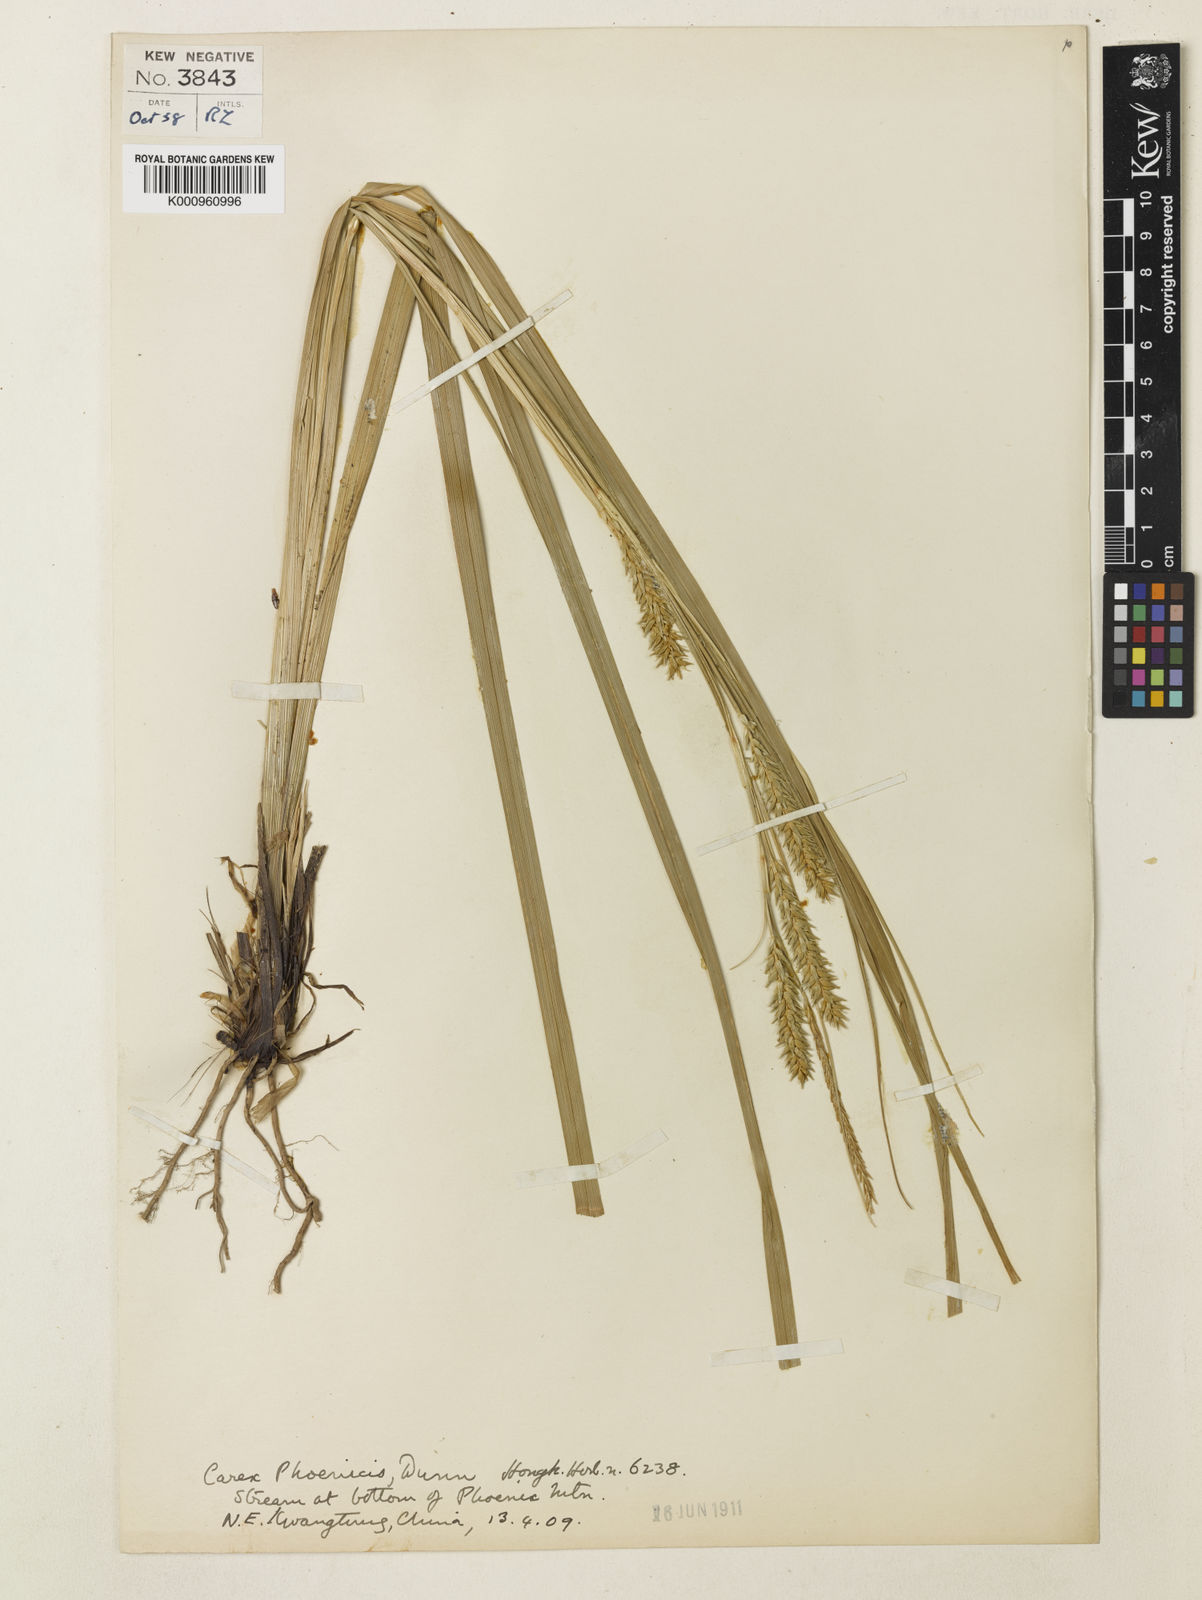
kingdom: Plantae
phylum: Tracheophyta
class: Liliopsida
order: Poales
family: Cyperaceae
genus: Carex
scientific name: Carex phoenicis
